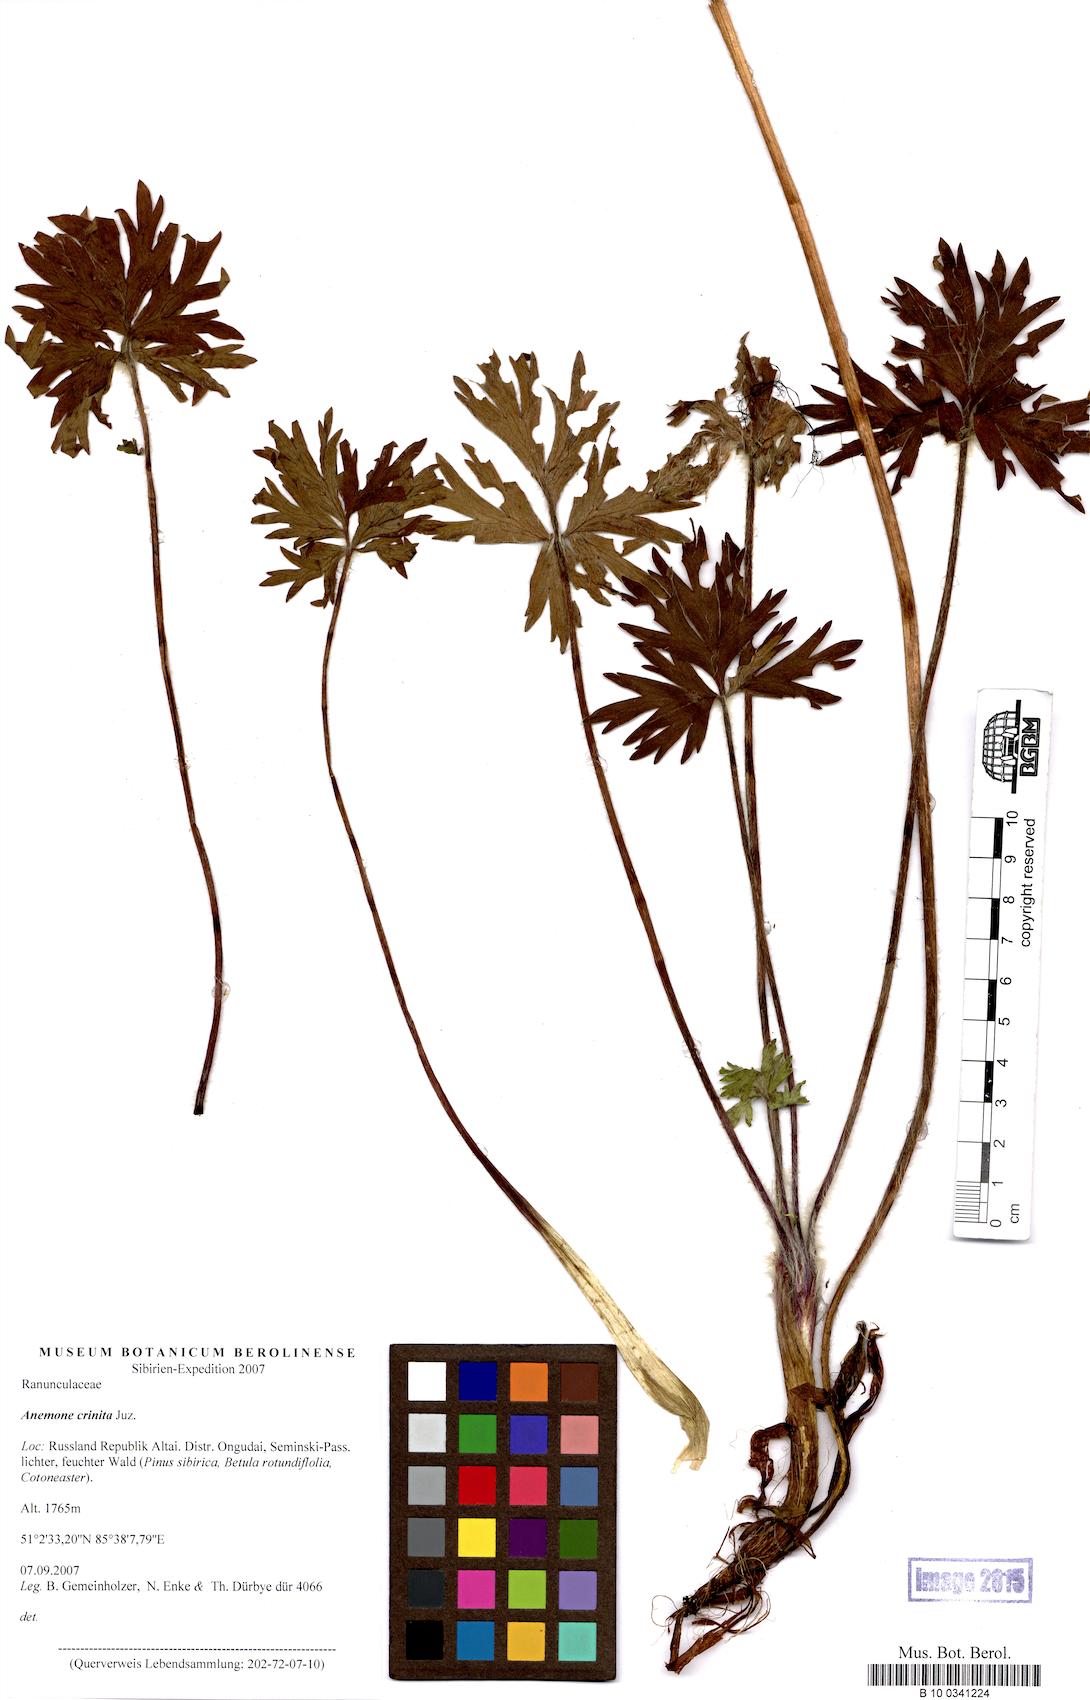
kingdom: Plantae
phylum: Tracheophyta
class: Magnoliopsida
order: Ranunculales
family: Ranunculaceae
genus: Anemonastrum
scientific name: Anemonastrum narcissiflorum
